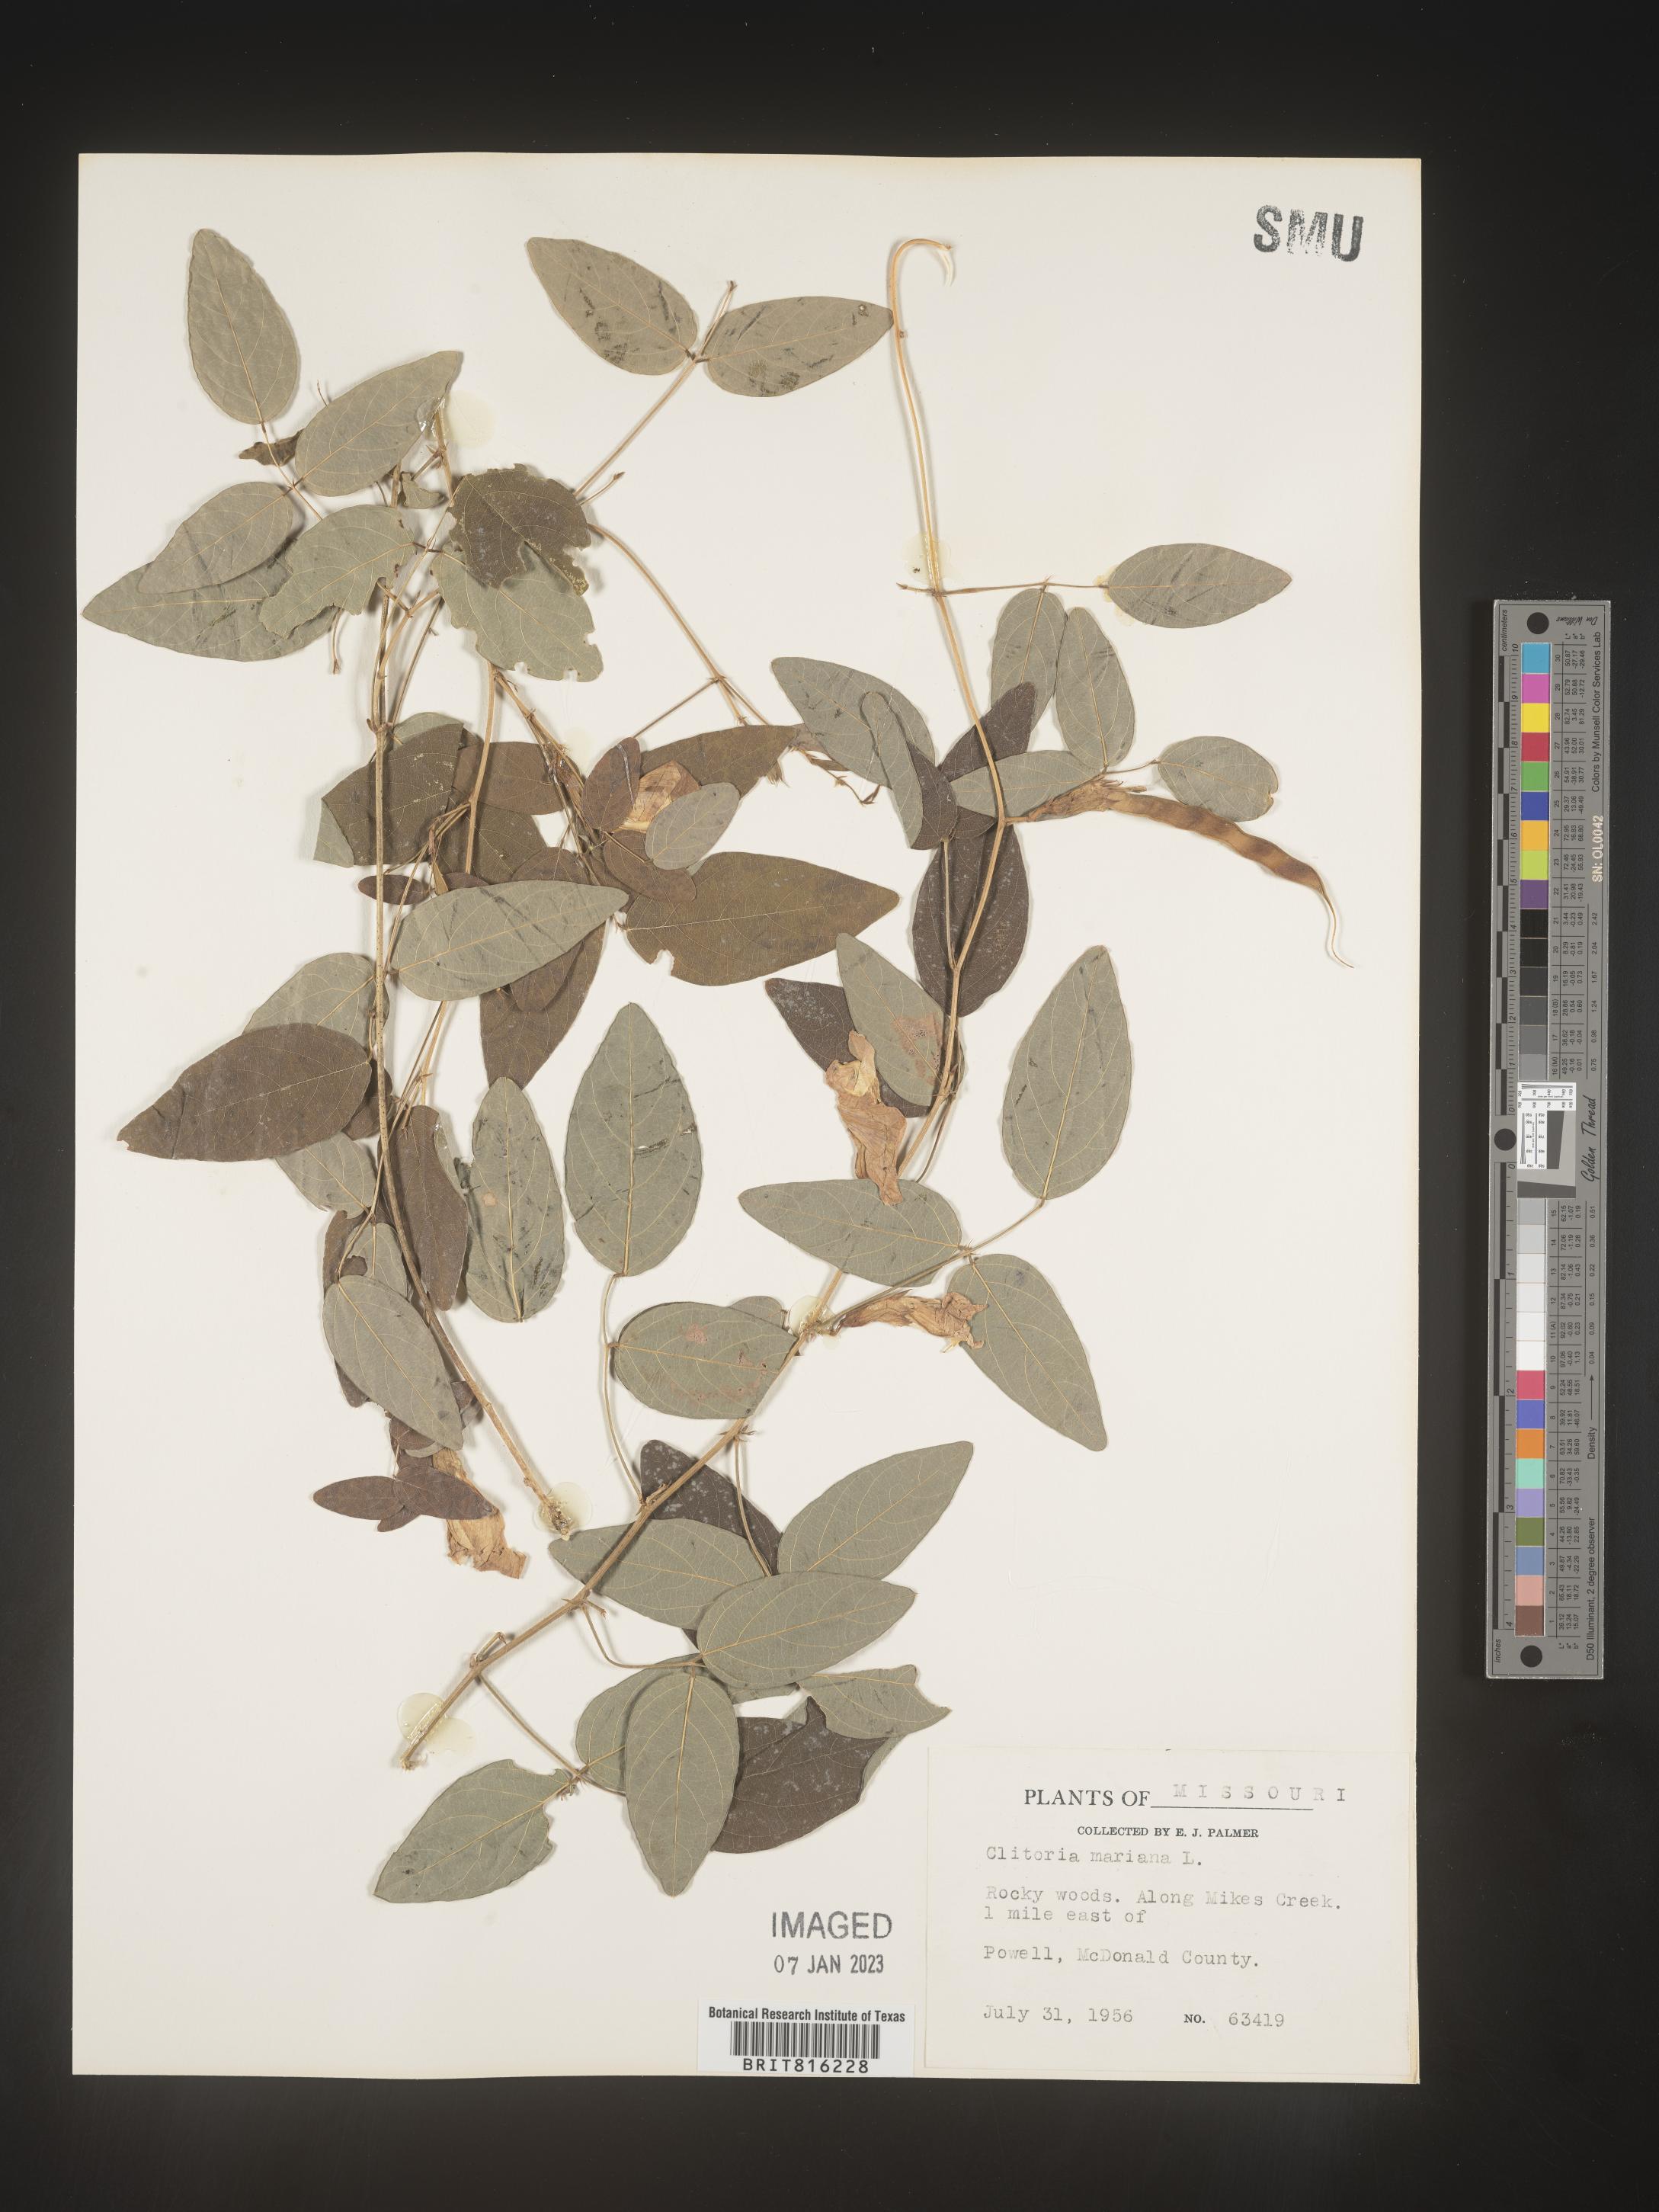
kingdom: Plantae
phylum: Tracheophyta
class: Magnoliopsida
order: Fabales
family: Fabaceae
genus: Clitoria
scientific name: Clitoria mariana
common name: Butterfly-pea
